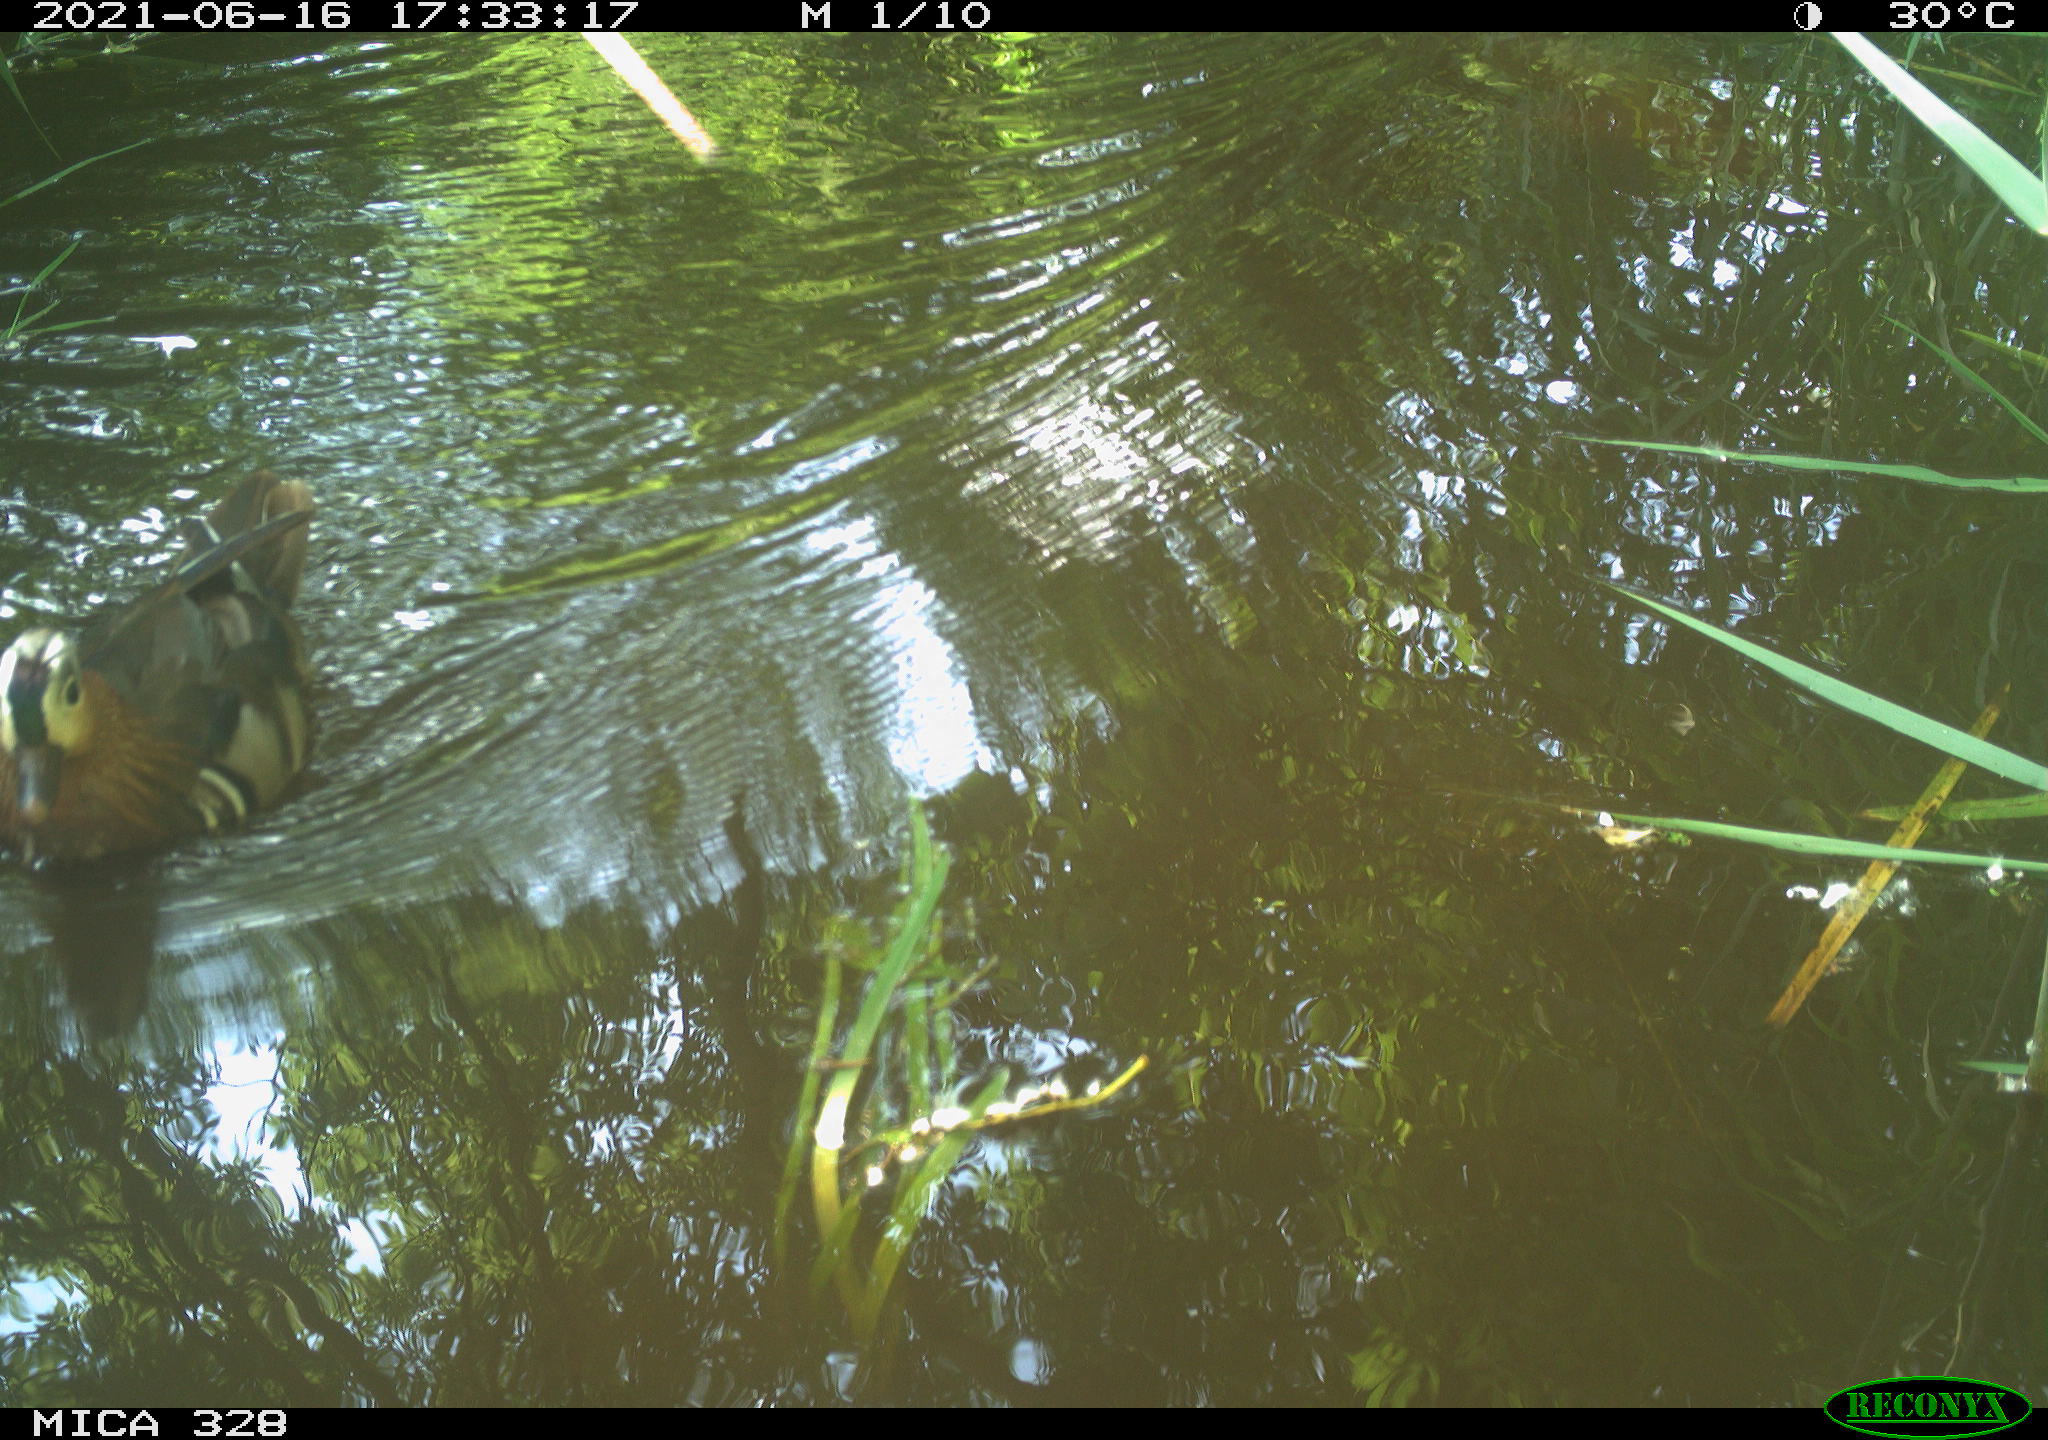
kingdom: Animalia
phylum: Chordata
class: Aves
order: Anseriformes
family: Anatidae
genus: Aix
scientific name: Aix galericulata
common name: Mandarin duck
